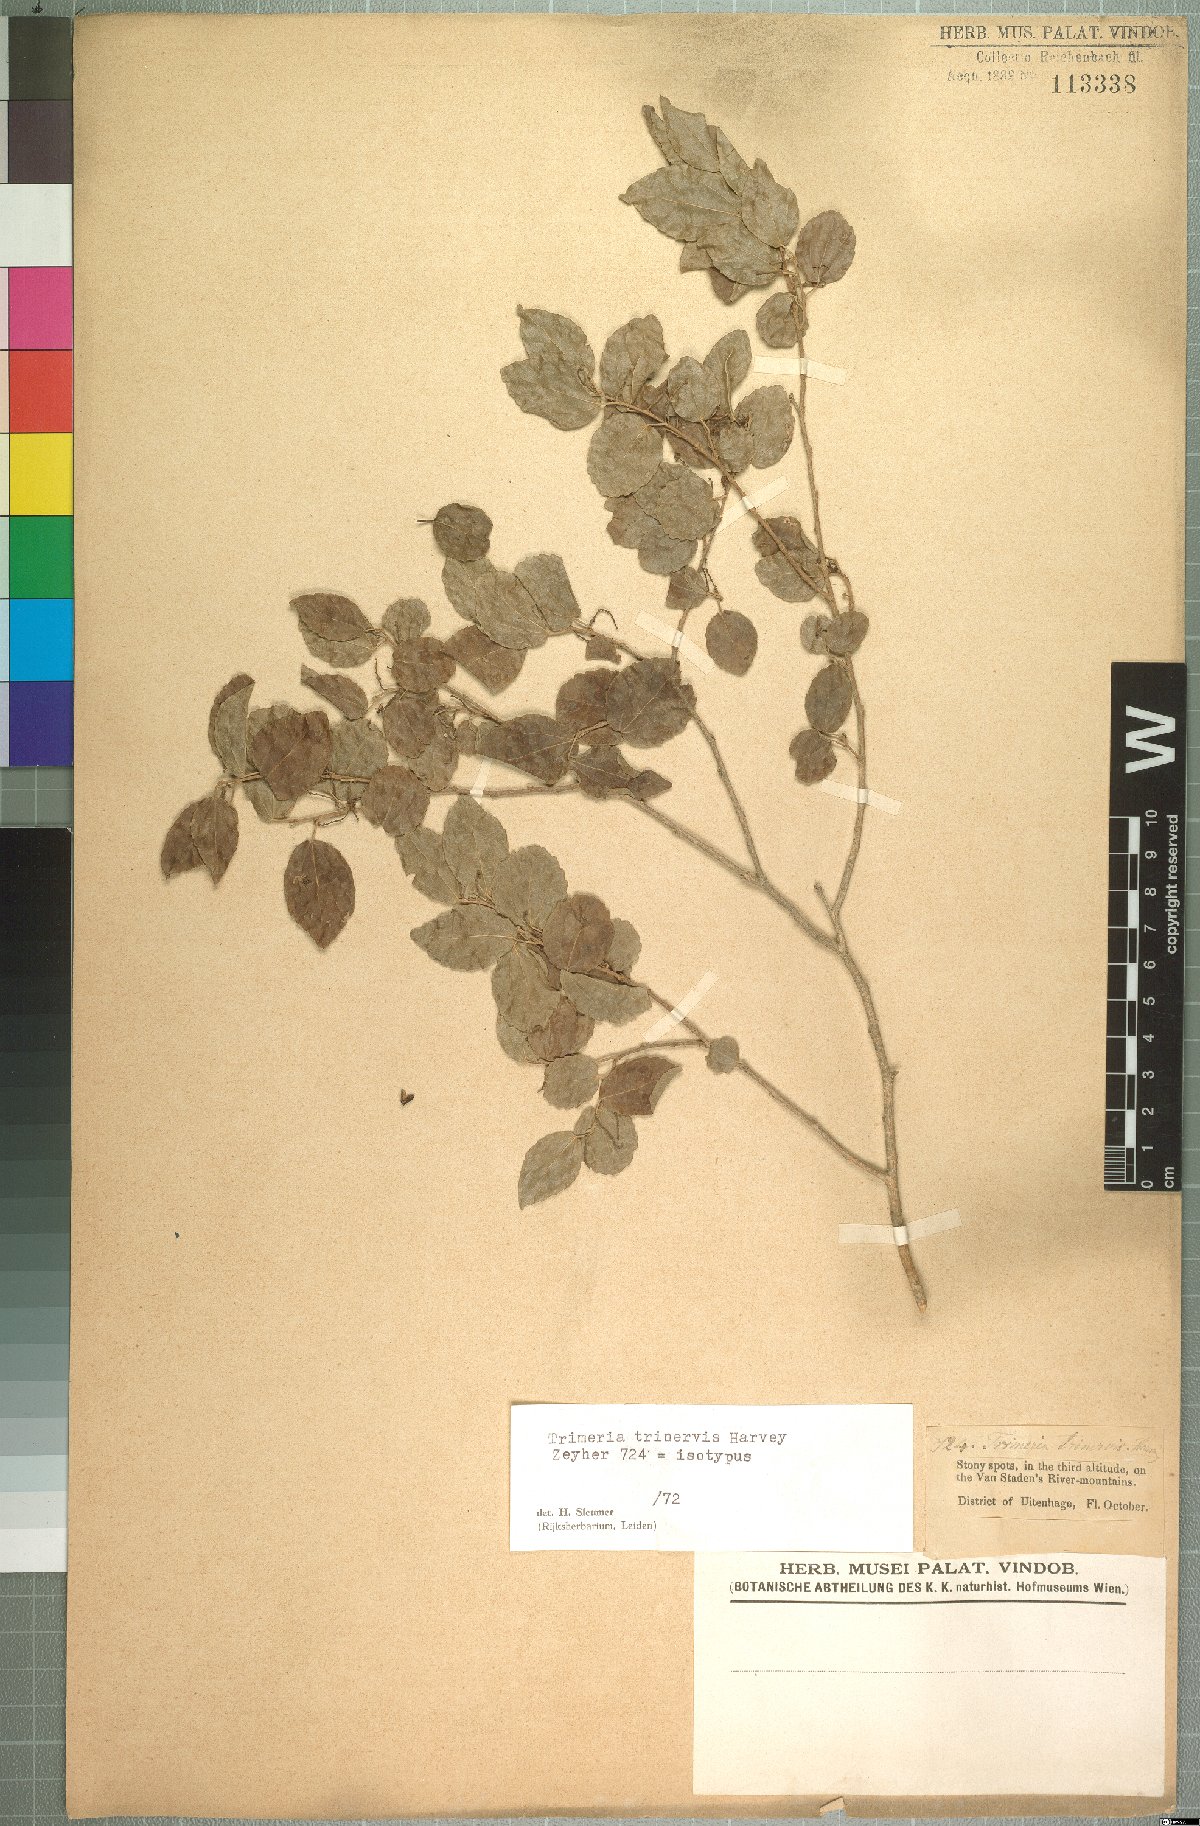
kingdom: Plantae
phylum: Tracheophyta
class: Magnoliopsida
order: Malpighiales
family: Salicaceae
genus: Trimeria
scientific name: Trimeria trinervis
